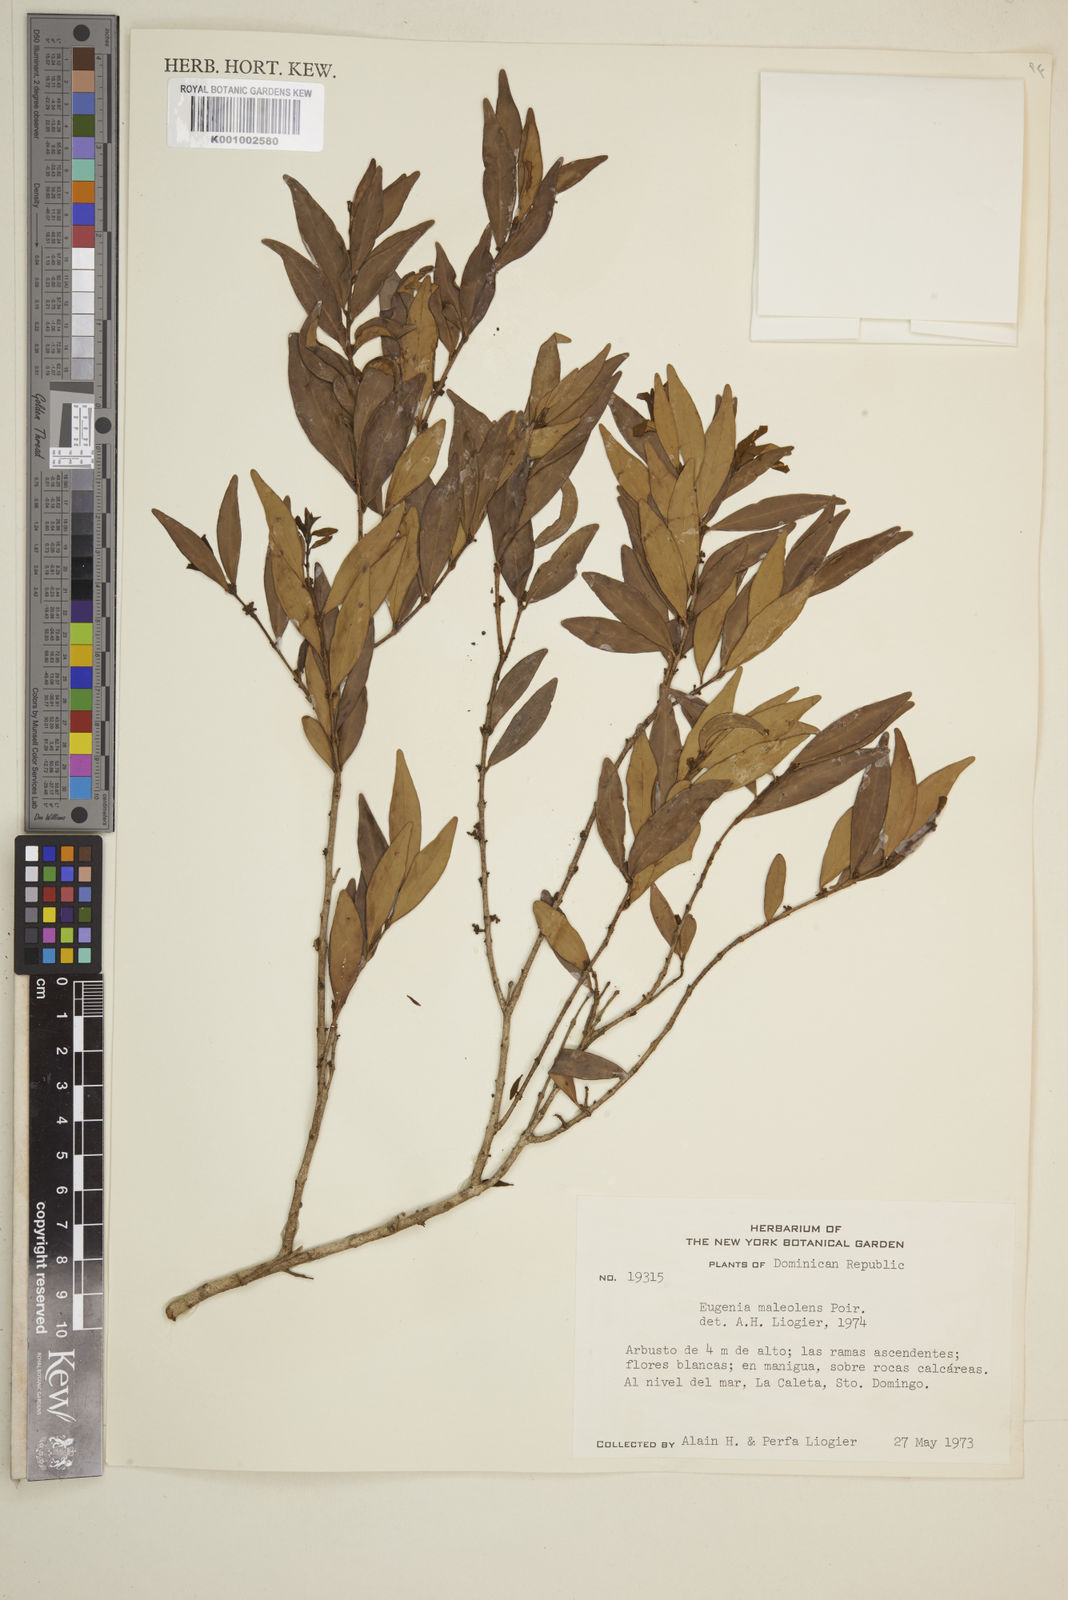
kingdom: Plantae
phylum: Tracheophyta
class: Magnoliopsida
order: Myrtales
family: Myrtaceae
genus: Eugenia
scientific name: Eugenia monticola
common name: Birds berry
